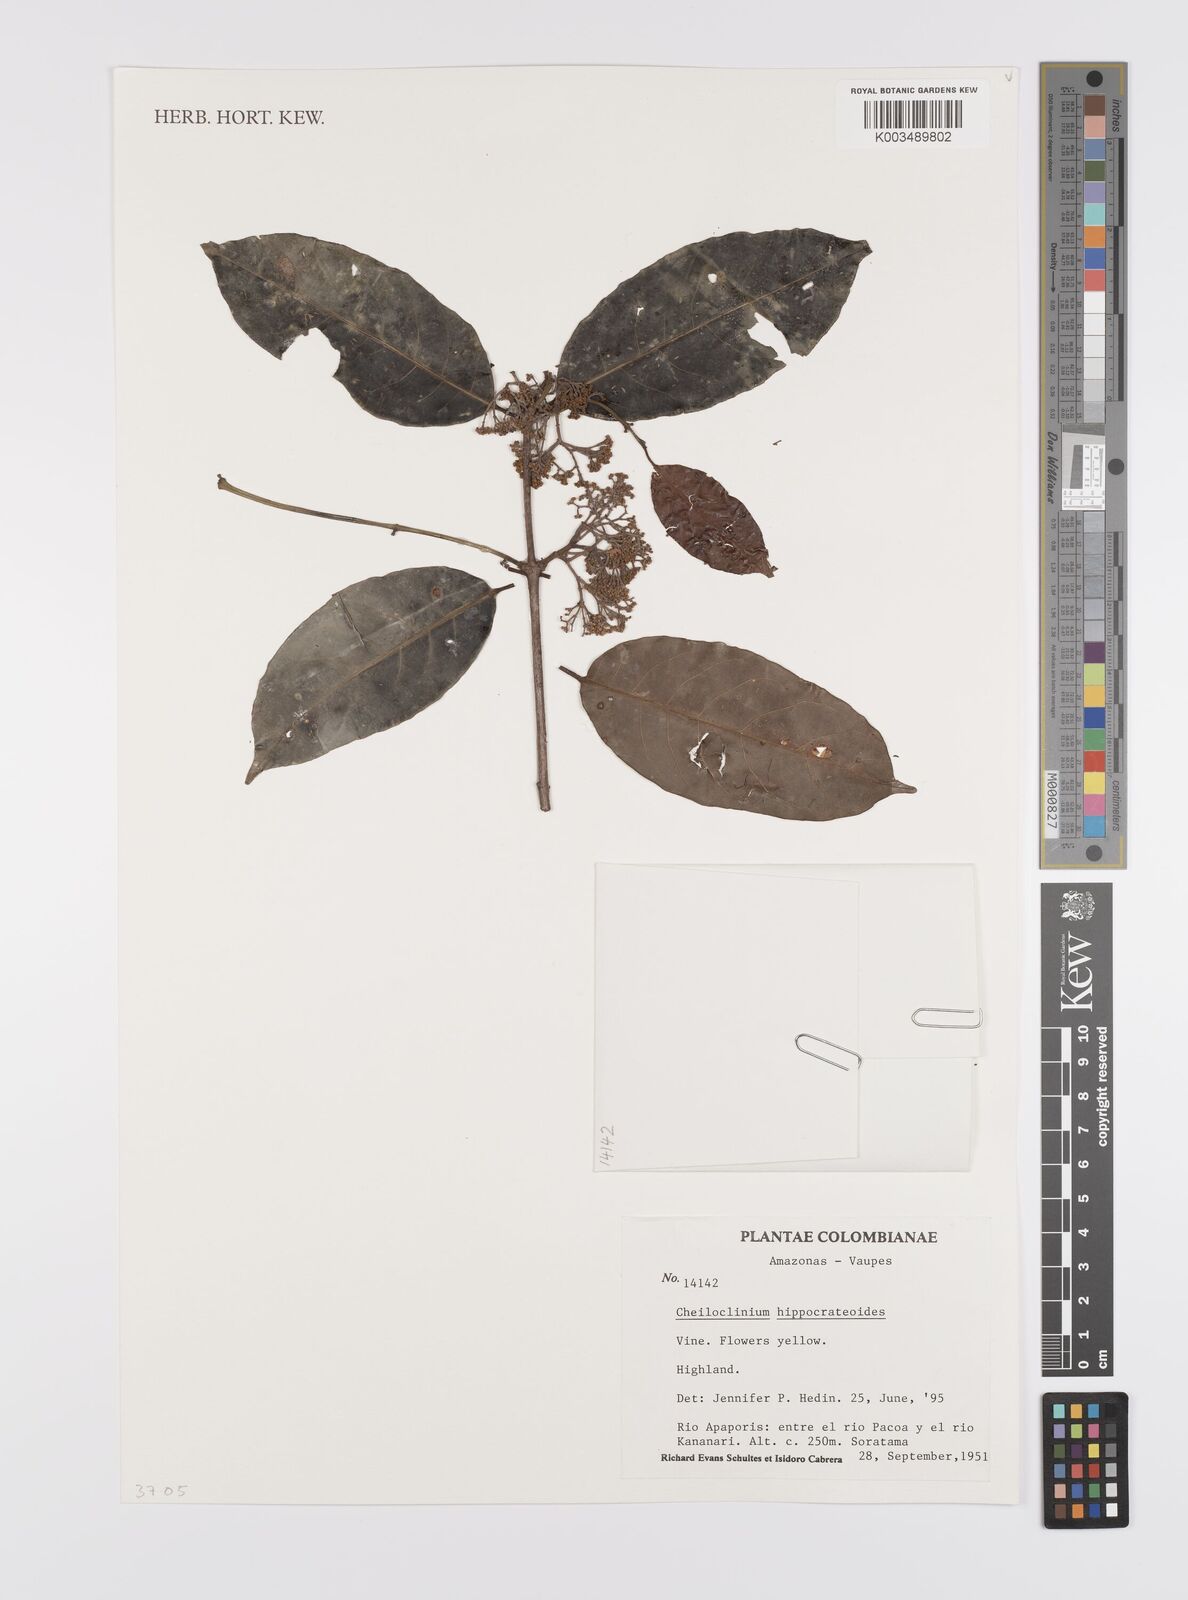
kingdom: Plantae
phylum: Tracheophyta
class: Magnoliopsida
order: Celastrales
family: Celastraceae
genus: Cheiloclinium
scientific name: Cheiloclinium hippocrateoides
